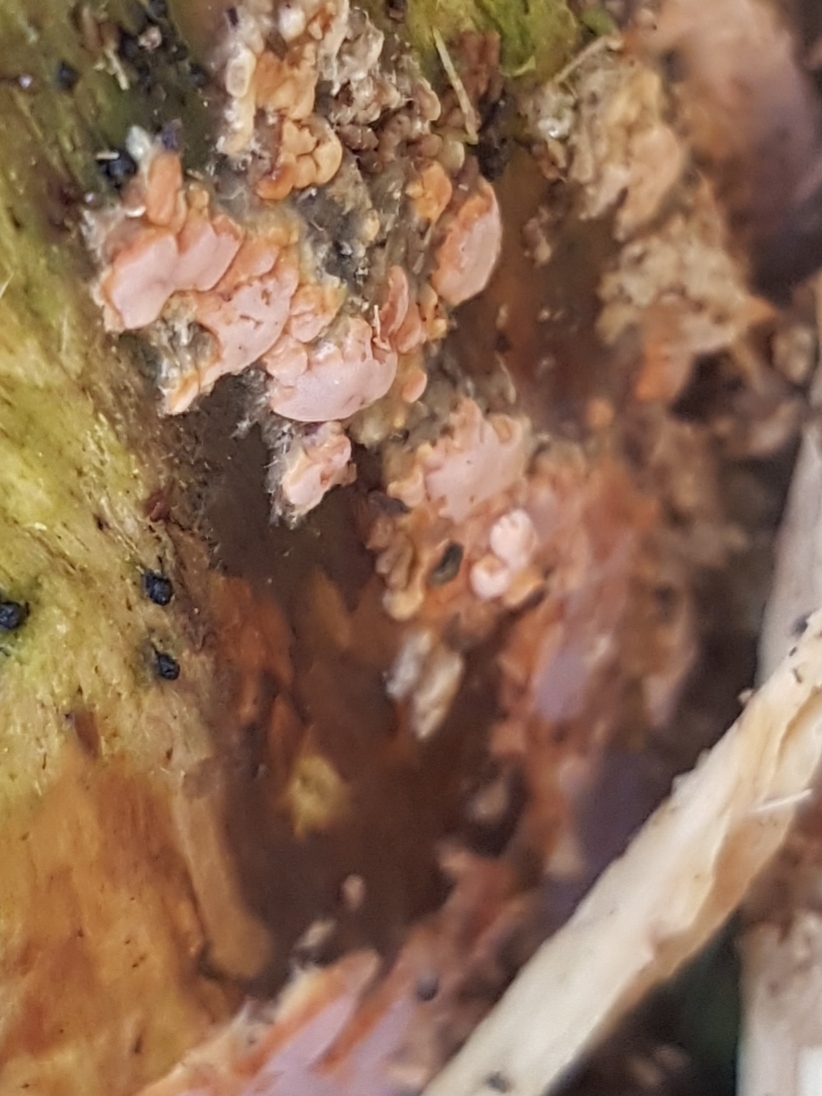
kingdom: Fungi
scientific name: Fungi
